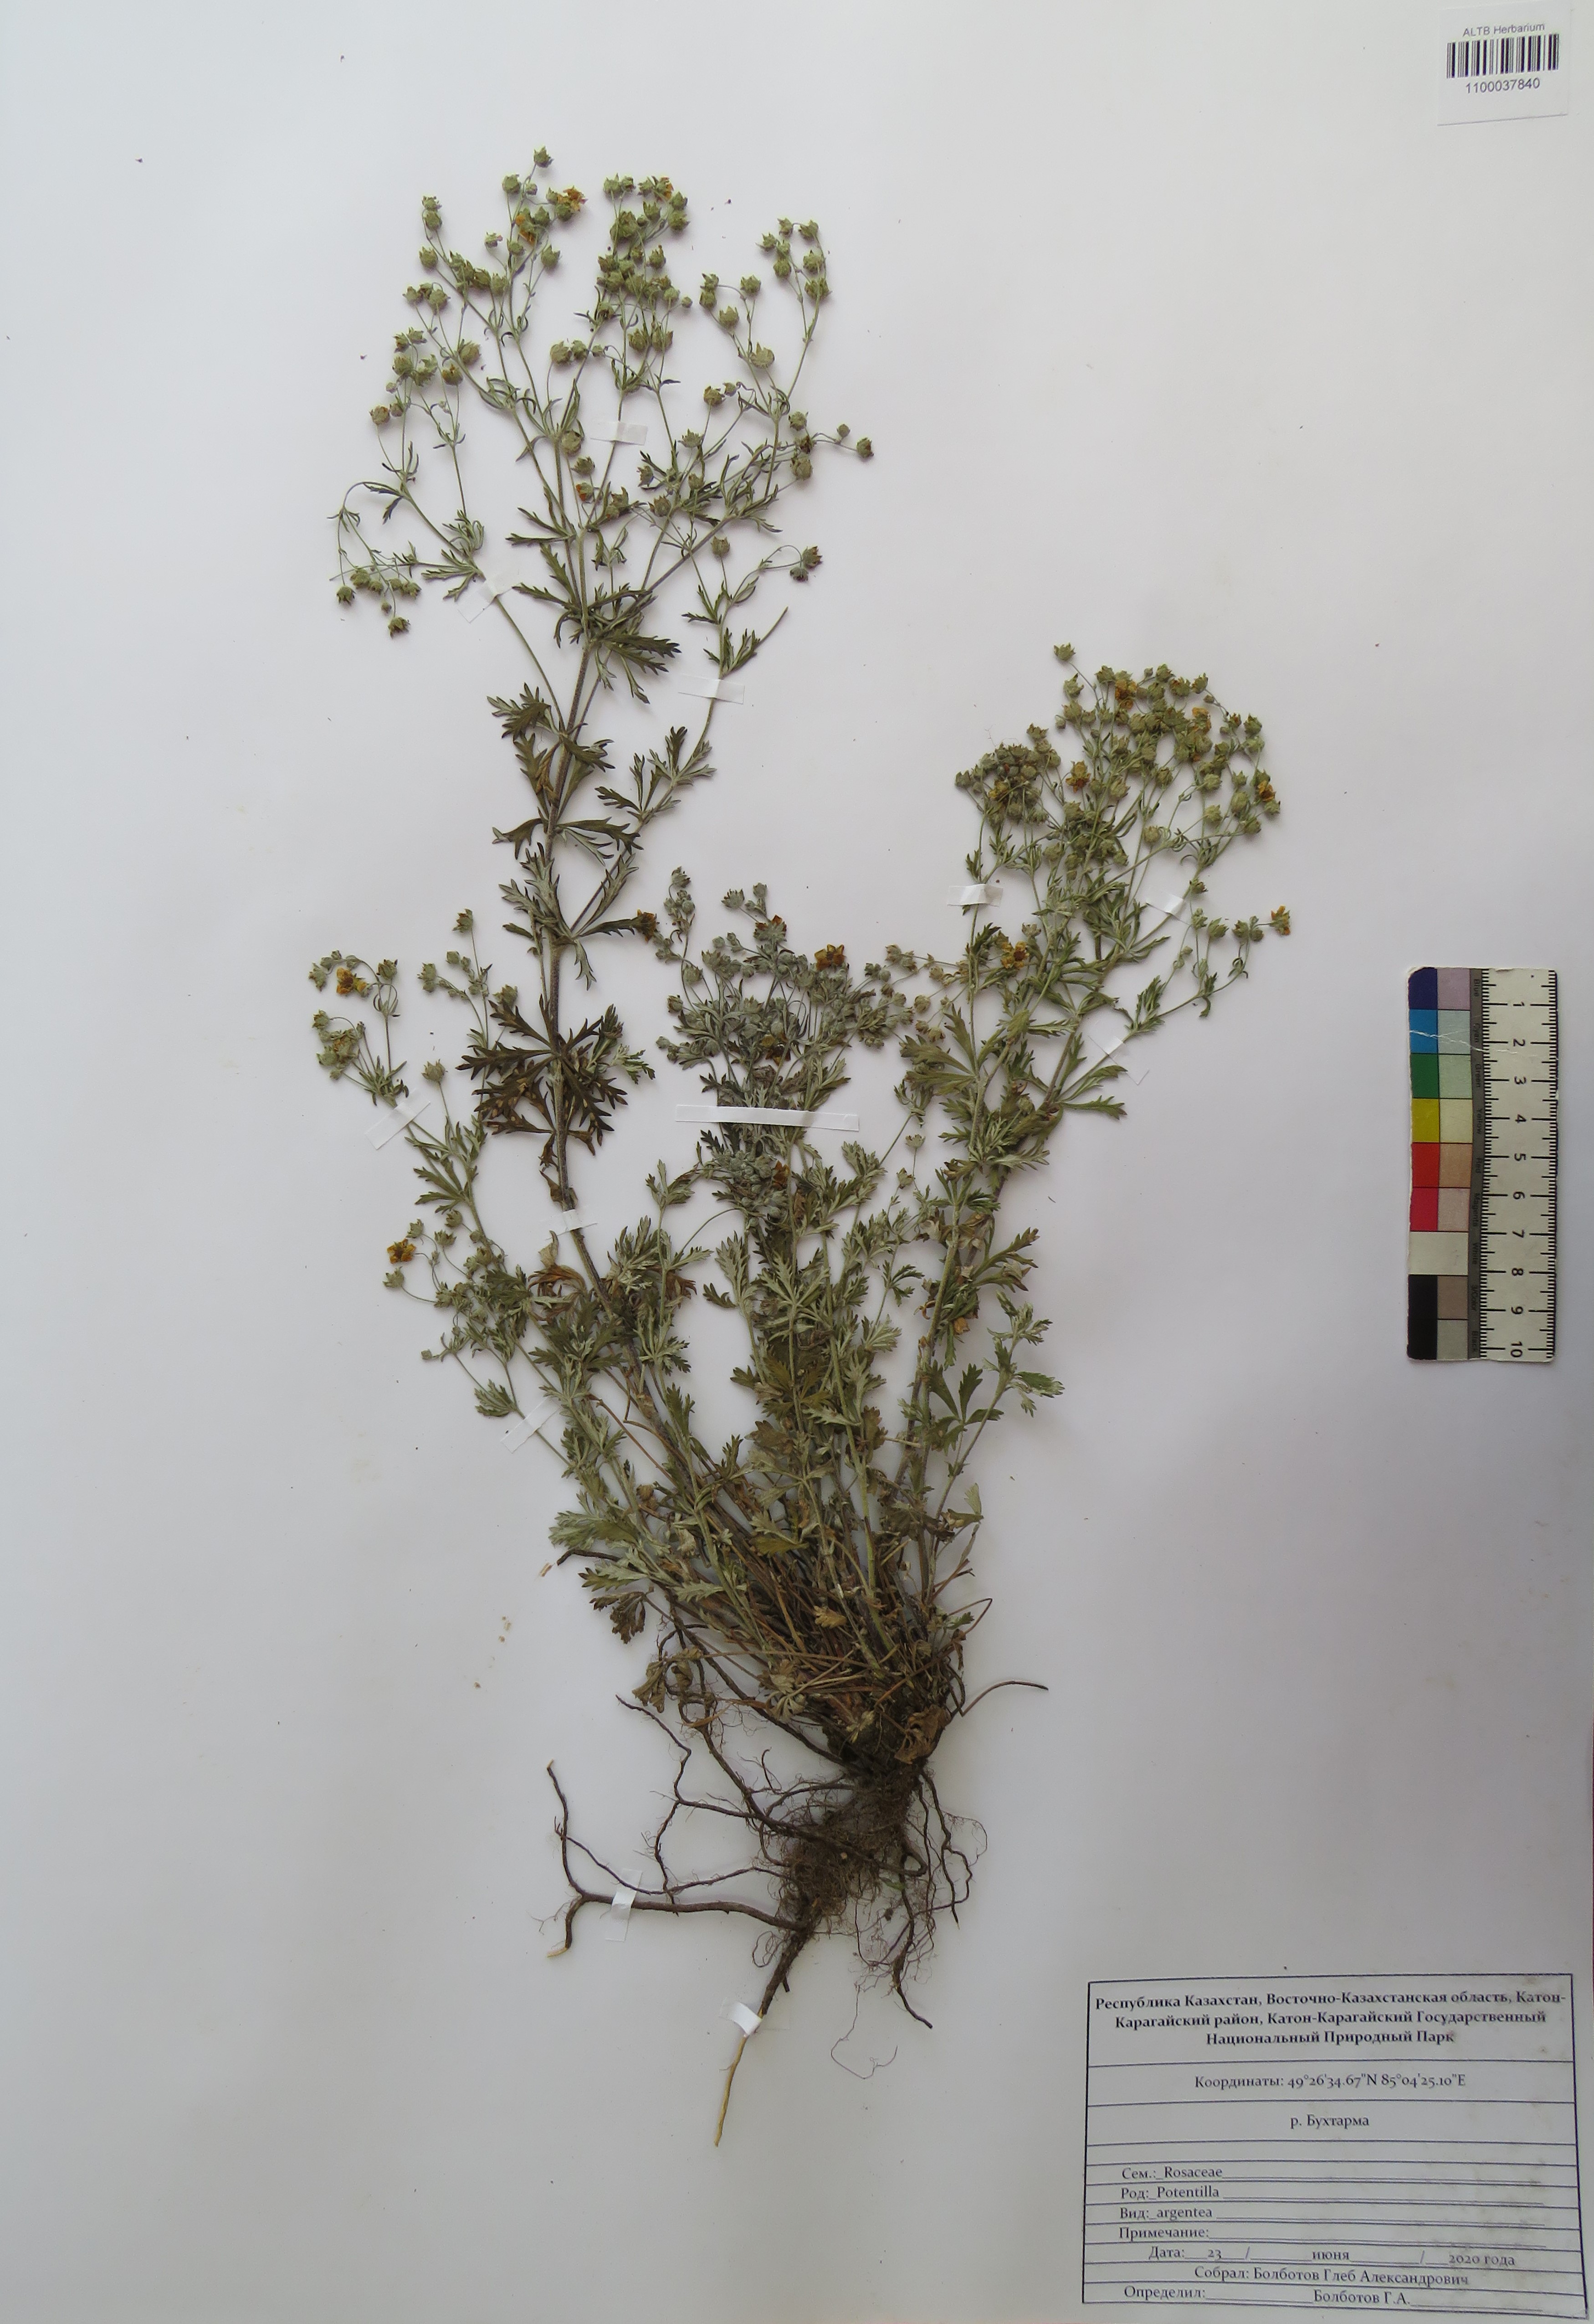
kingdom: Plantae
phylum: Tracheophyta
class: Magnoliopsida
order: Rosales
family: Rosaceae
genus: Potentilla
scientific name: Potentilla argentea
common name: Hoary cinquefoil
